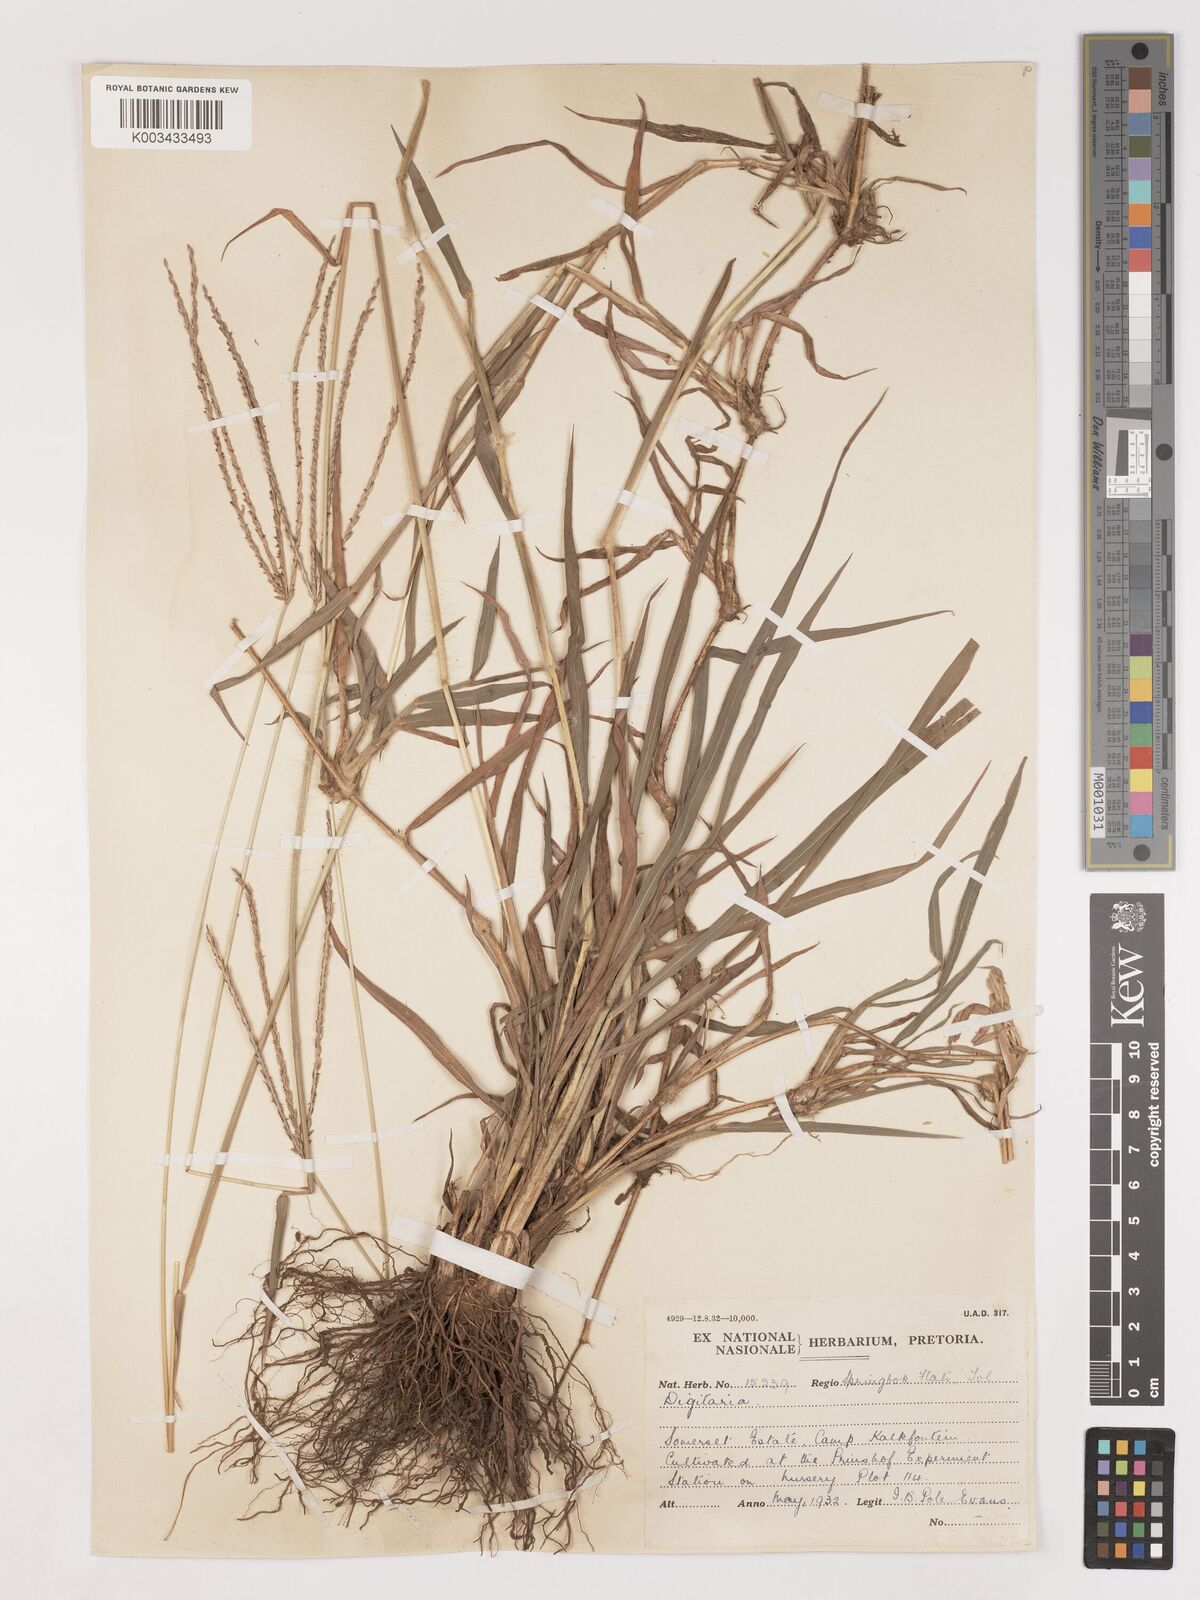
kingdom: Plantae
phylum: Tracheophyta
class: Liliopsida
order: Poales
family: Poaceae
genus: Digitaria
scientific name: Digitaria eriantha
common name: Digitgrass
